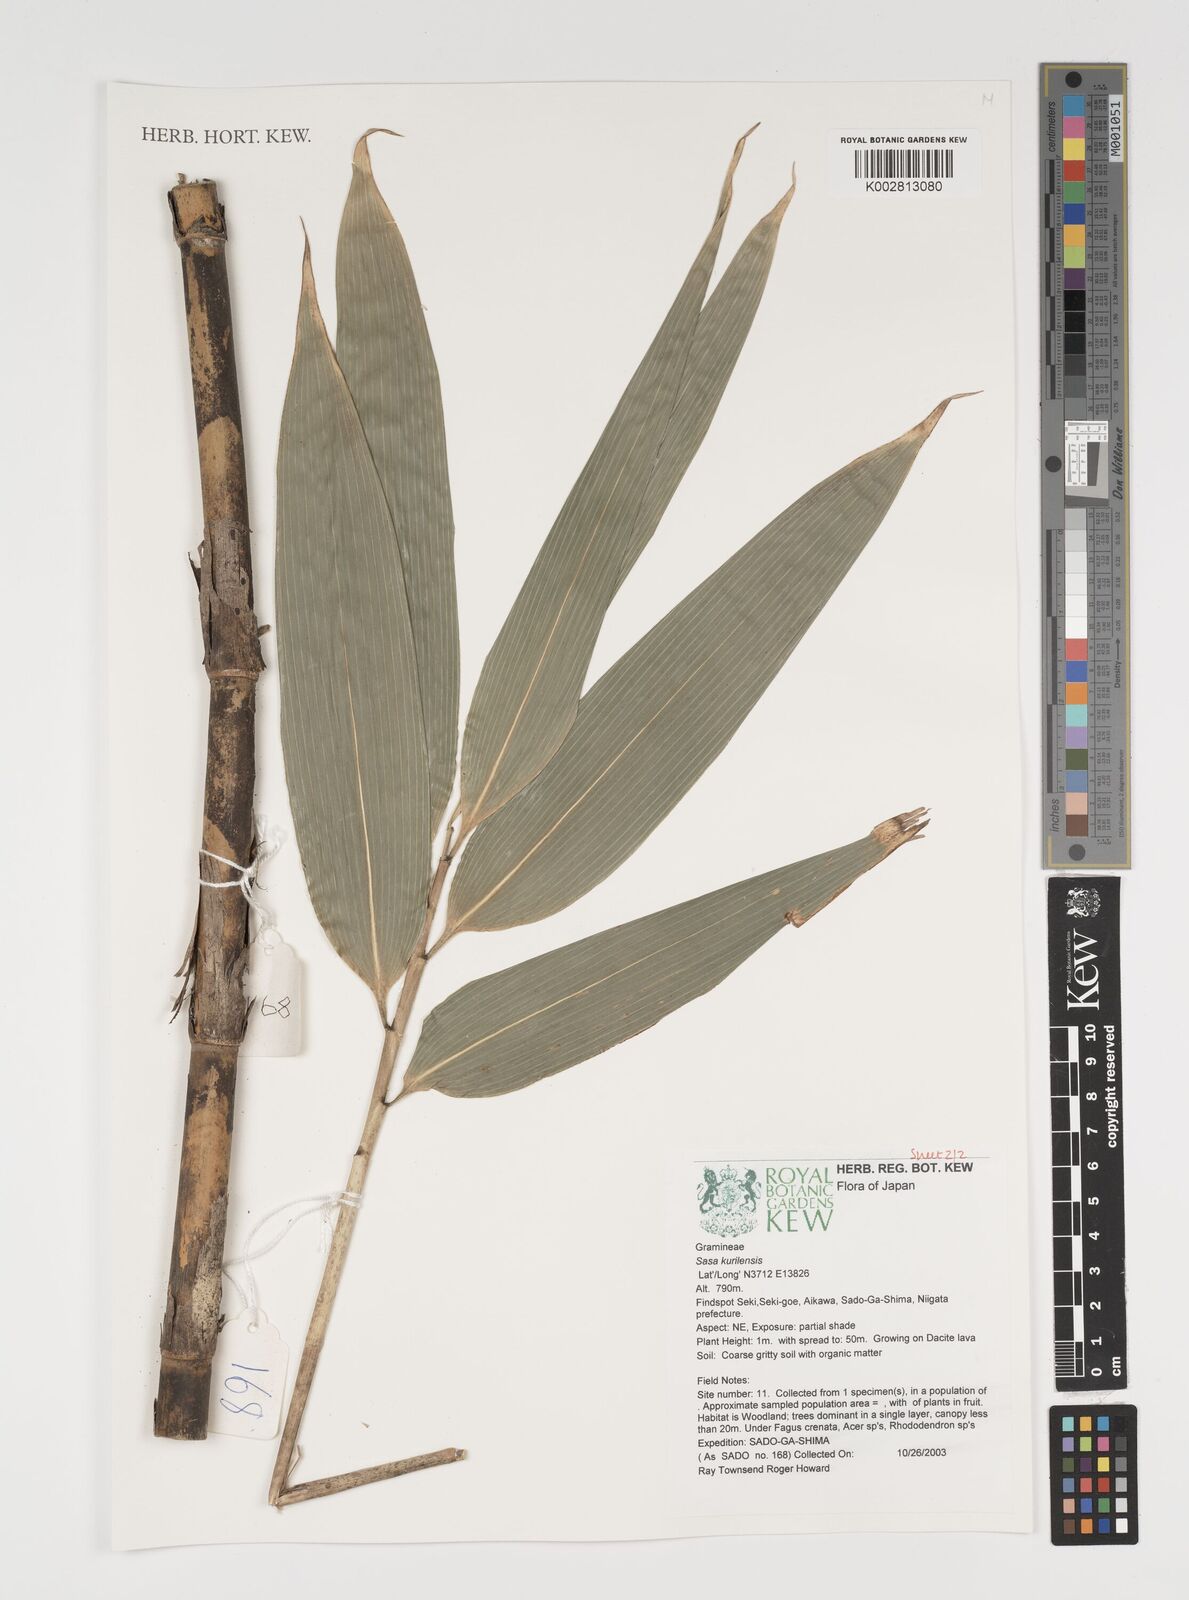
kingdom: Plantae
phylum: Tracheophyta
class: Liliopsida
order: Poales
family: Poaceae
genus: Sasa
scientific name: Sasa kurilensis
